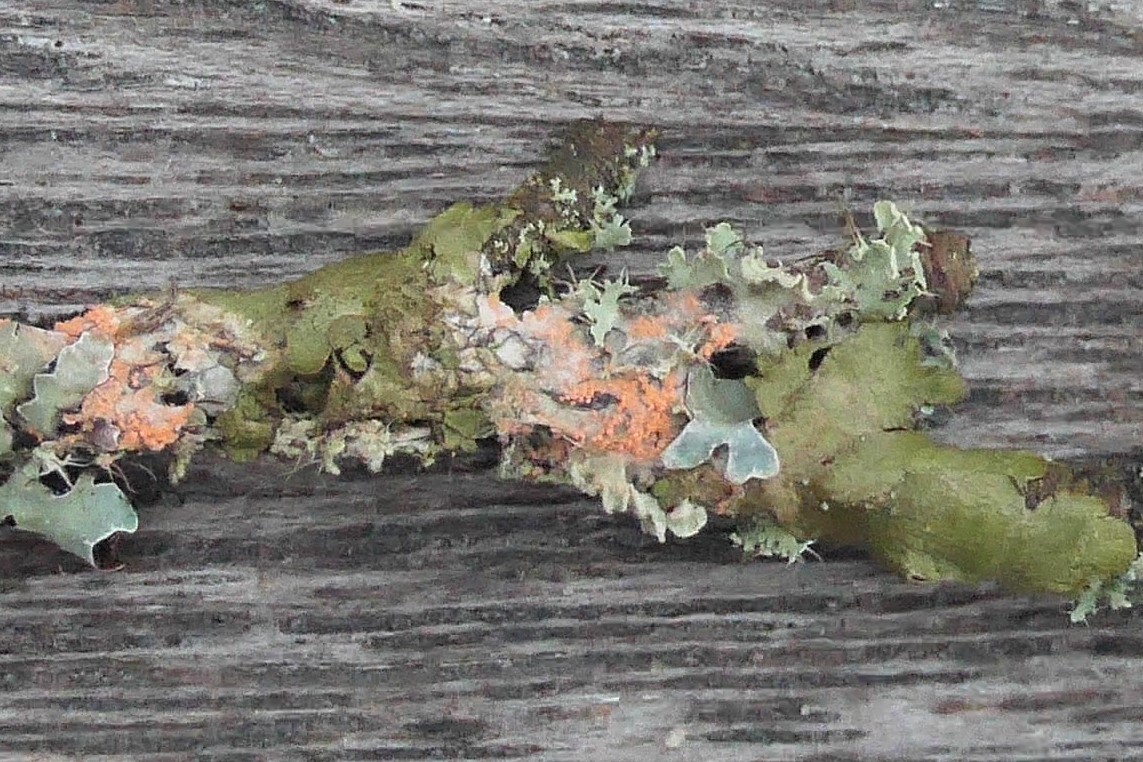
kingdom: Fungi
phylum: Basidiomycota
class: Agaricomycetes
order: Corticiales
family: Corticiaceae
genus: Erythricium
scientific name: Erythricium aurantiacum
